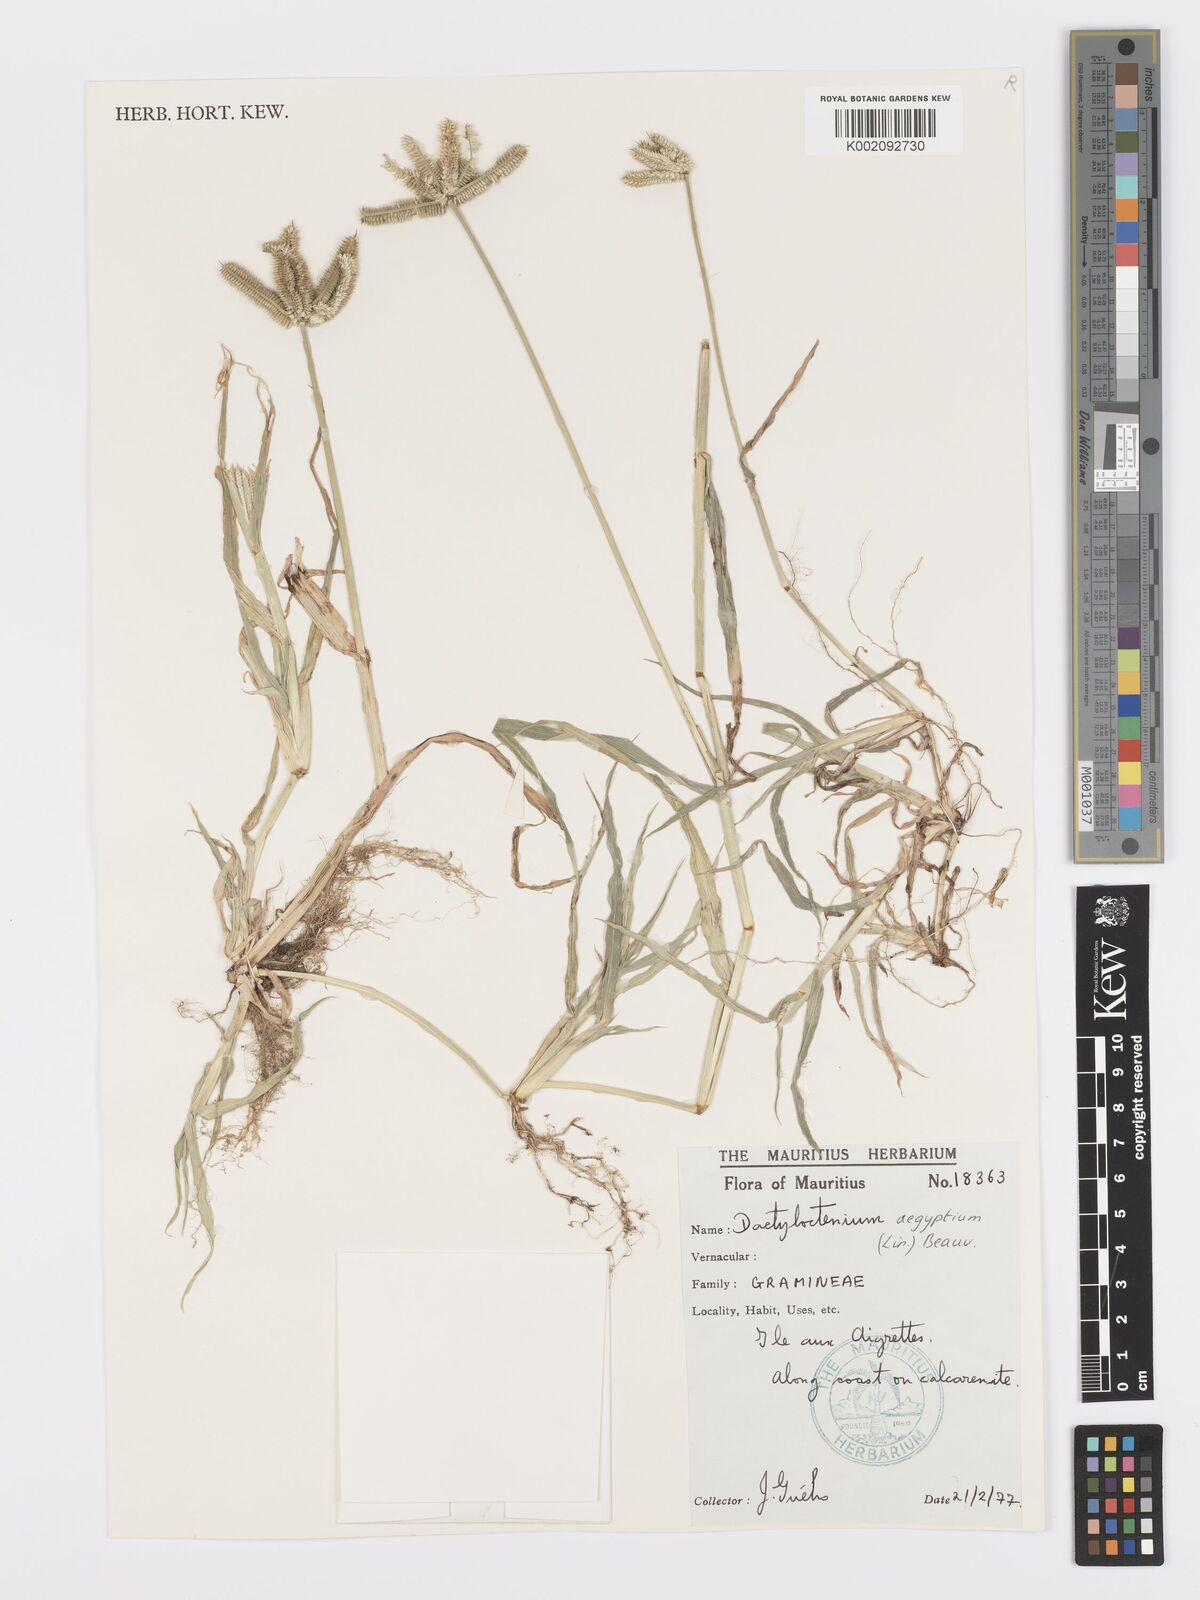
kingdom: Plantae
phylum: Tracheophyta
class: Liliopsida
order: Poales
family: Poaceae
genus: Dactyloctenium
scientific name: Dactyloctenium aegyptium
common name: Egyptian grass
